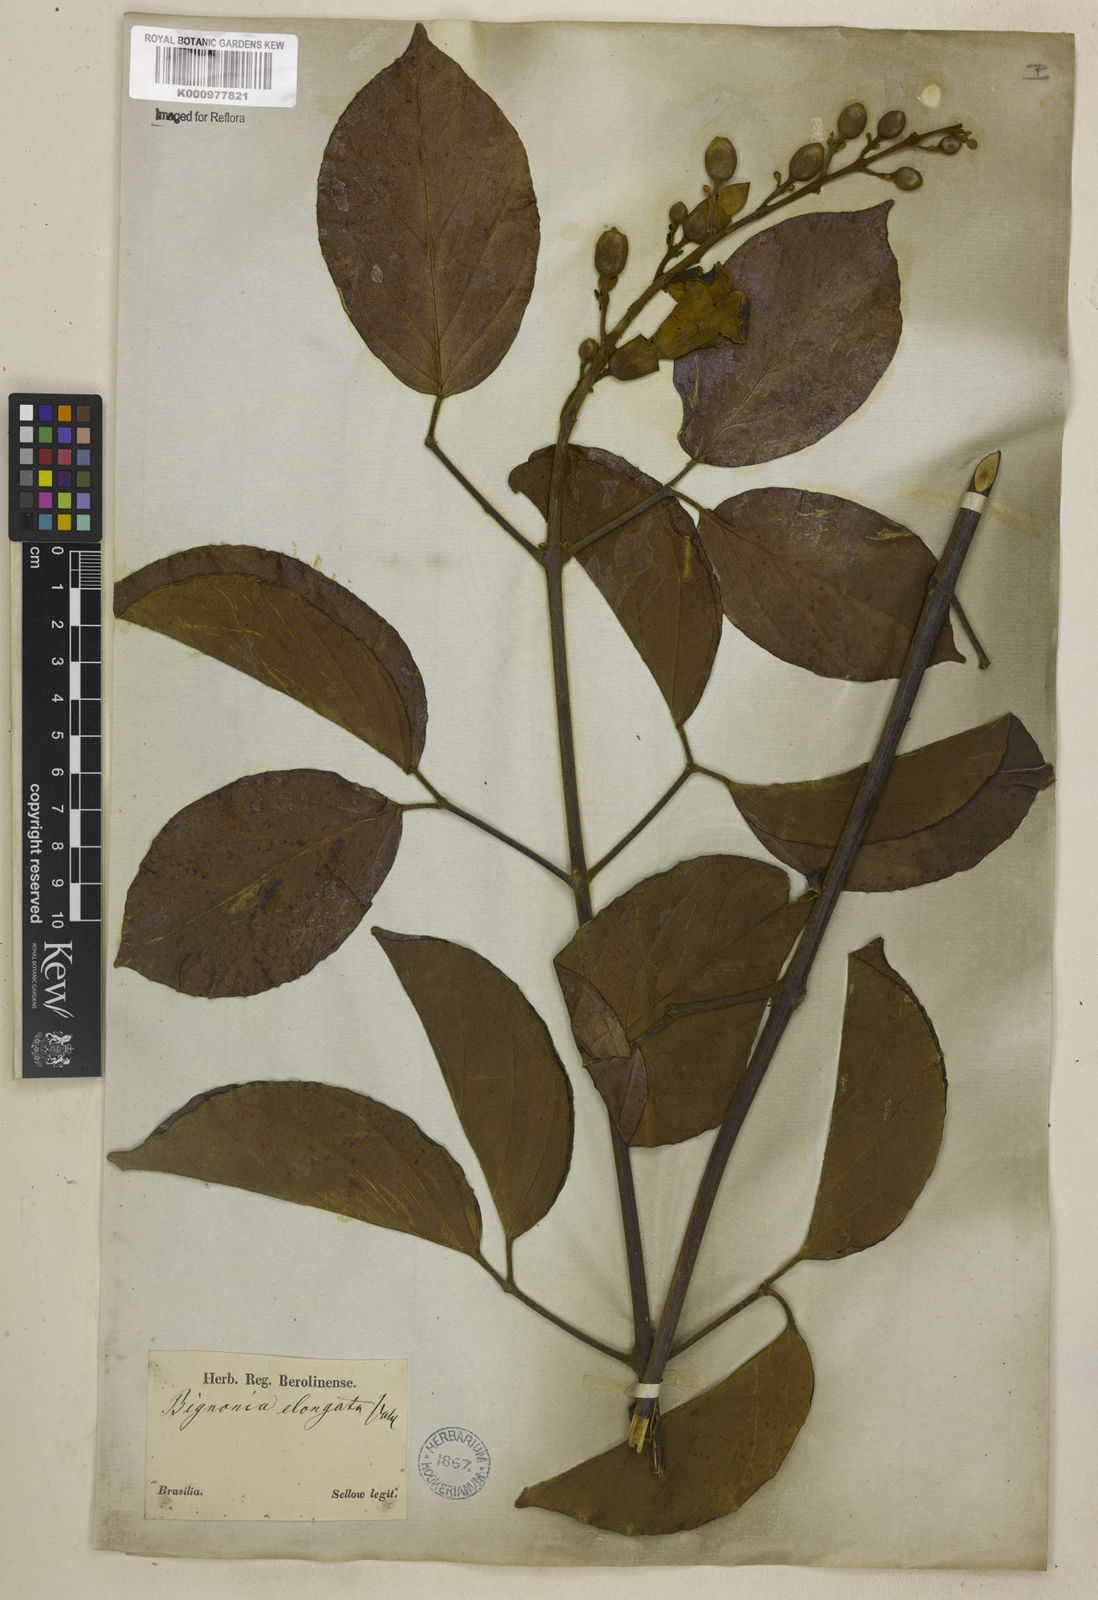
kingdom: Plantae
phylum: Tracheophyta
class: Magnoliopsida
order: Lamiales
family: Bignoniaceae
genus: Amphilophium
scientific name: Amphilophium mansoanum
